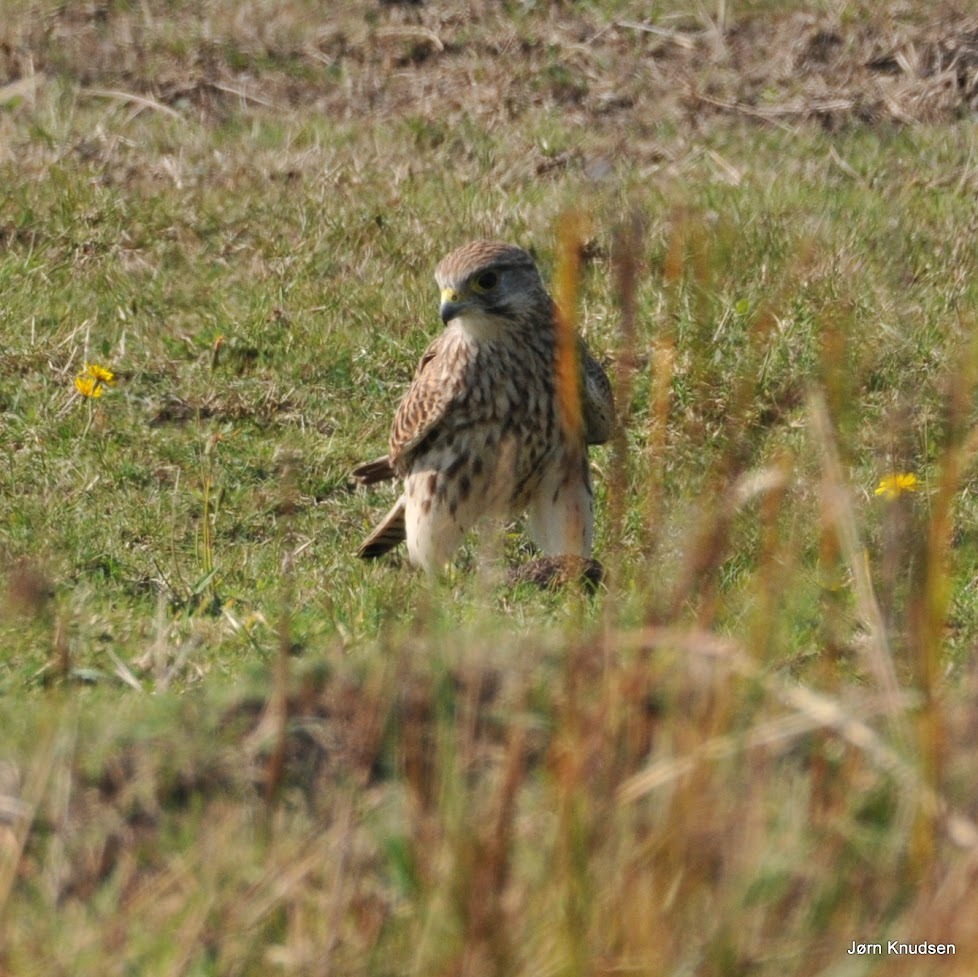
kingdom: Animalia
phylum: Chordata
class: Aves
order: Falconiformes
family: Falconidae
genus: Falco
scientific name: Falco tinnunculus
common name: Tårnfalk
